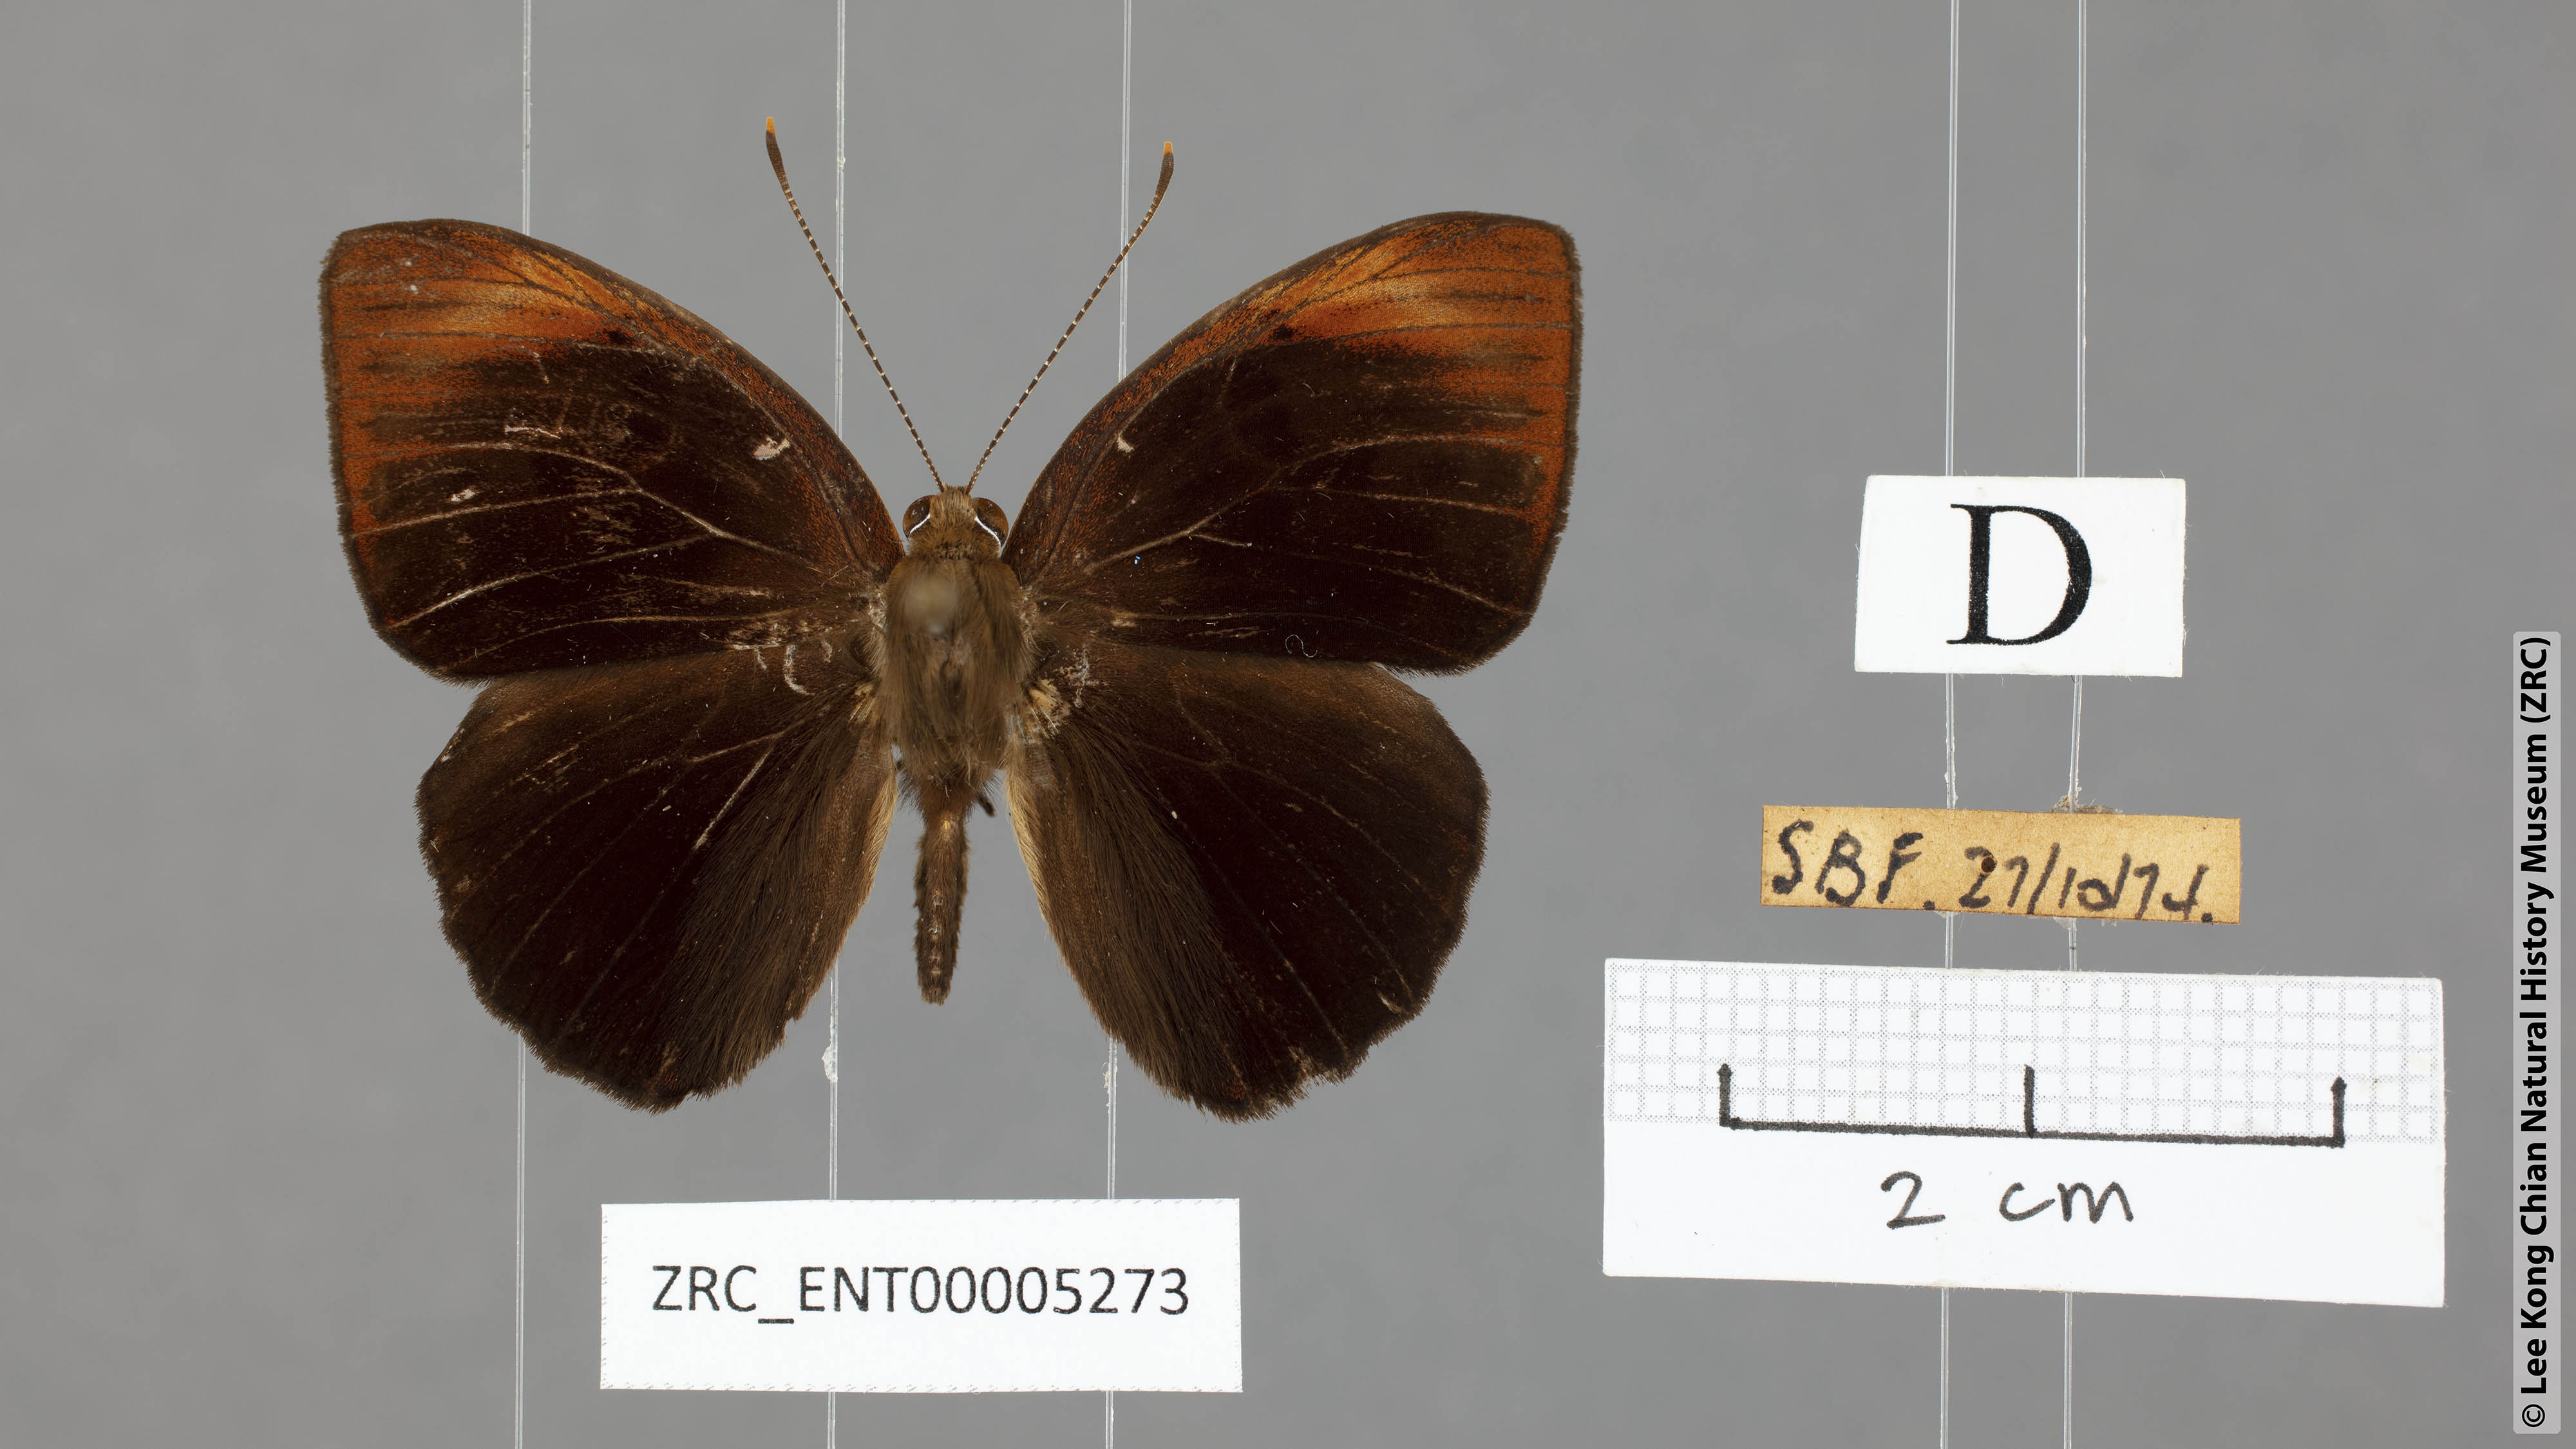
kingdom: Animalia
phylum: Arthropoda
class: Insecta
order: Lepidoptera
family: Erebidae
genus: Dysschema
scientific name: Dysschema
